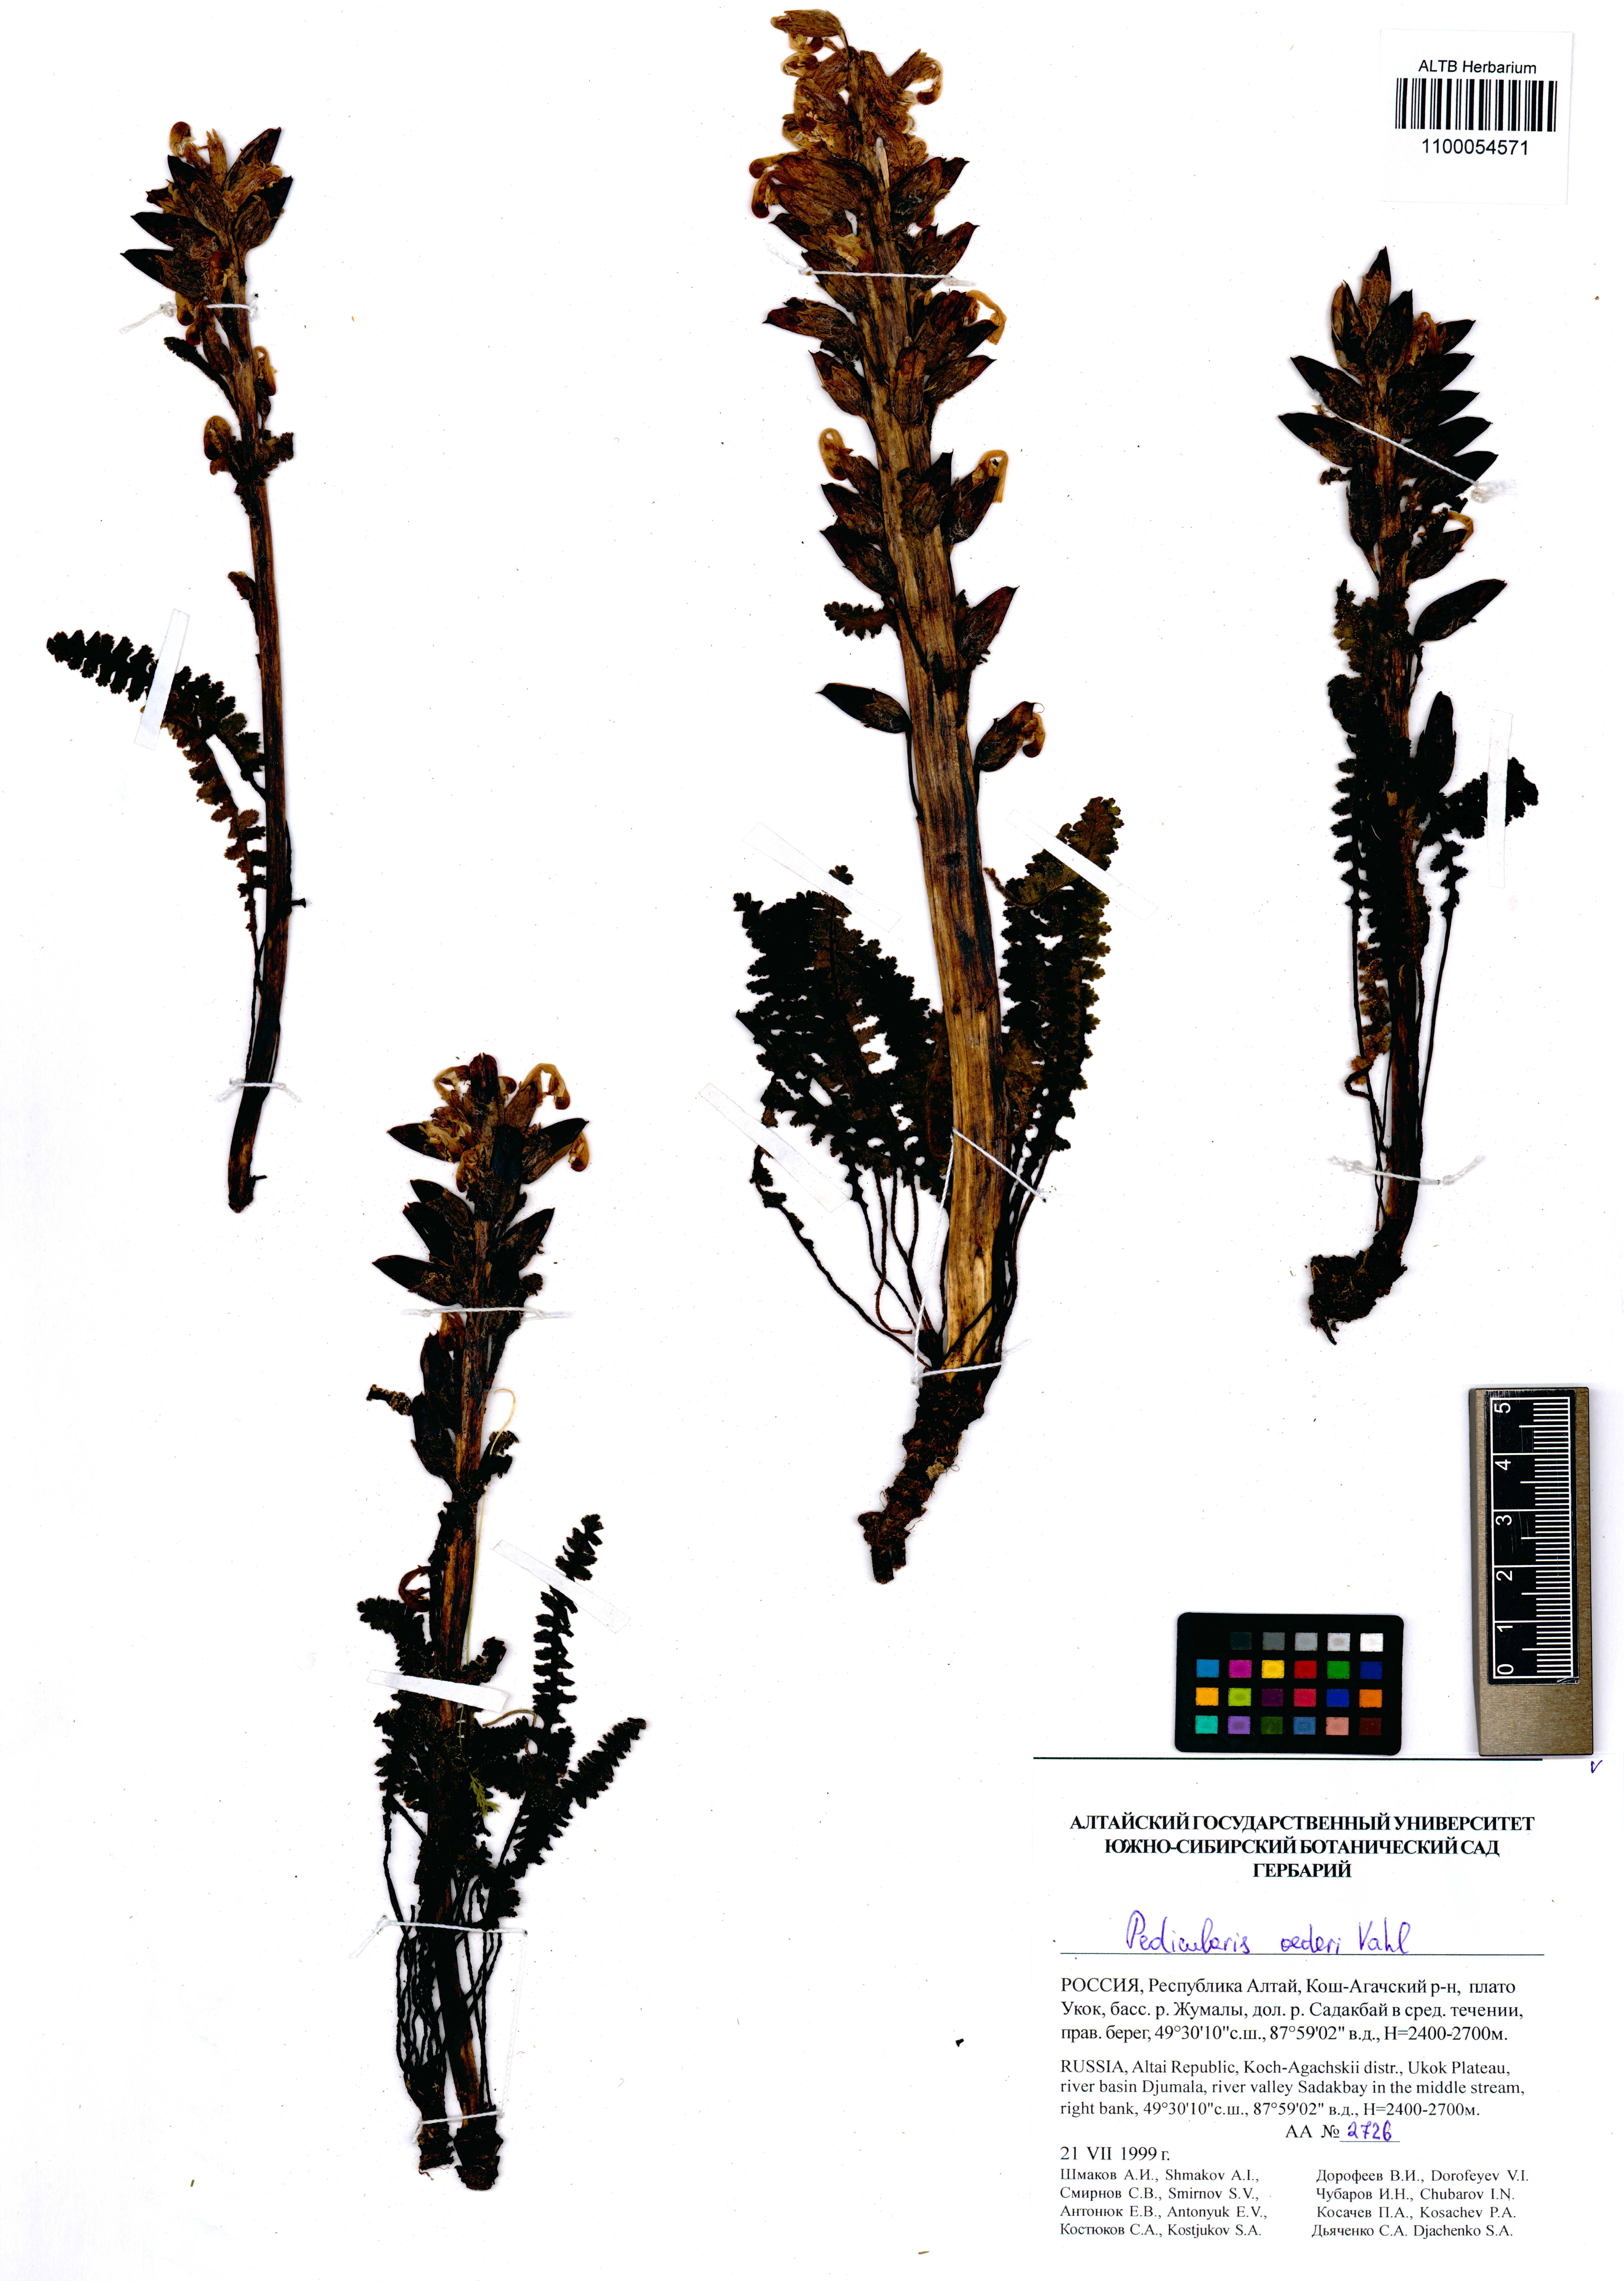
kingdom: Plantae
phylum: Tracheophyta
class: Magnoliopsida
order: Lamiales
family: Orobanchaceae
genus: Pedicularis
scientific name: Pedicularis oederi
